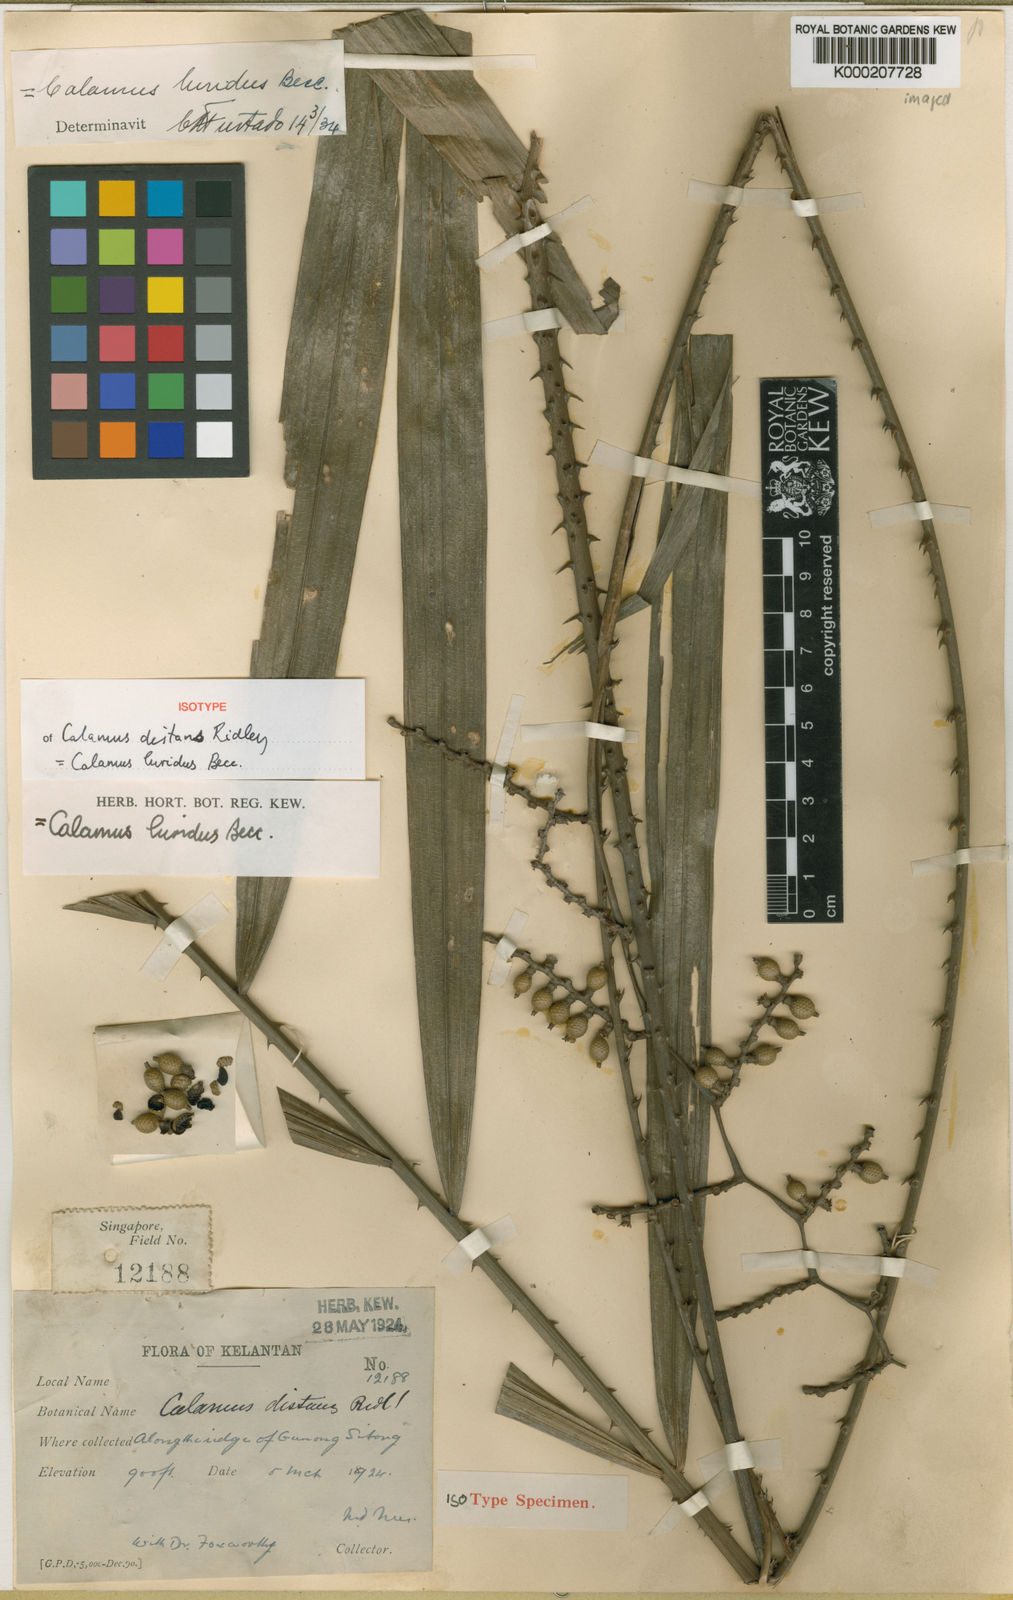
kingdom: Plantae
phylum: Tracheophyta
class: Liliopsida
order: Arecales
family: Arecaceae
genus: Calamus
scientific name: Calamus micranthus
